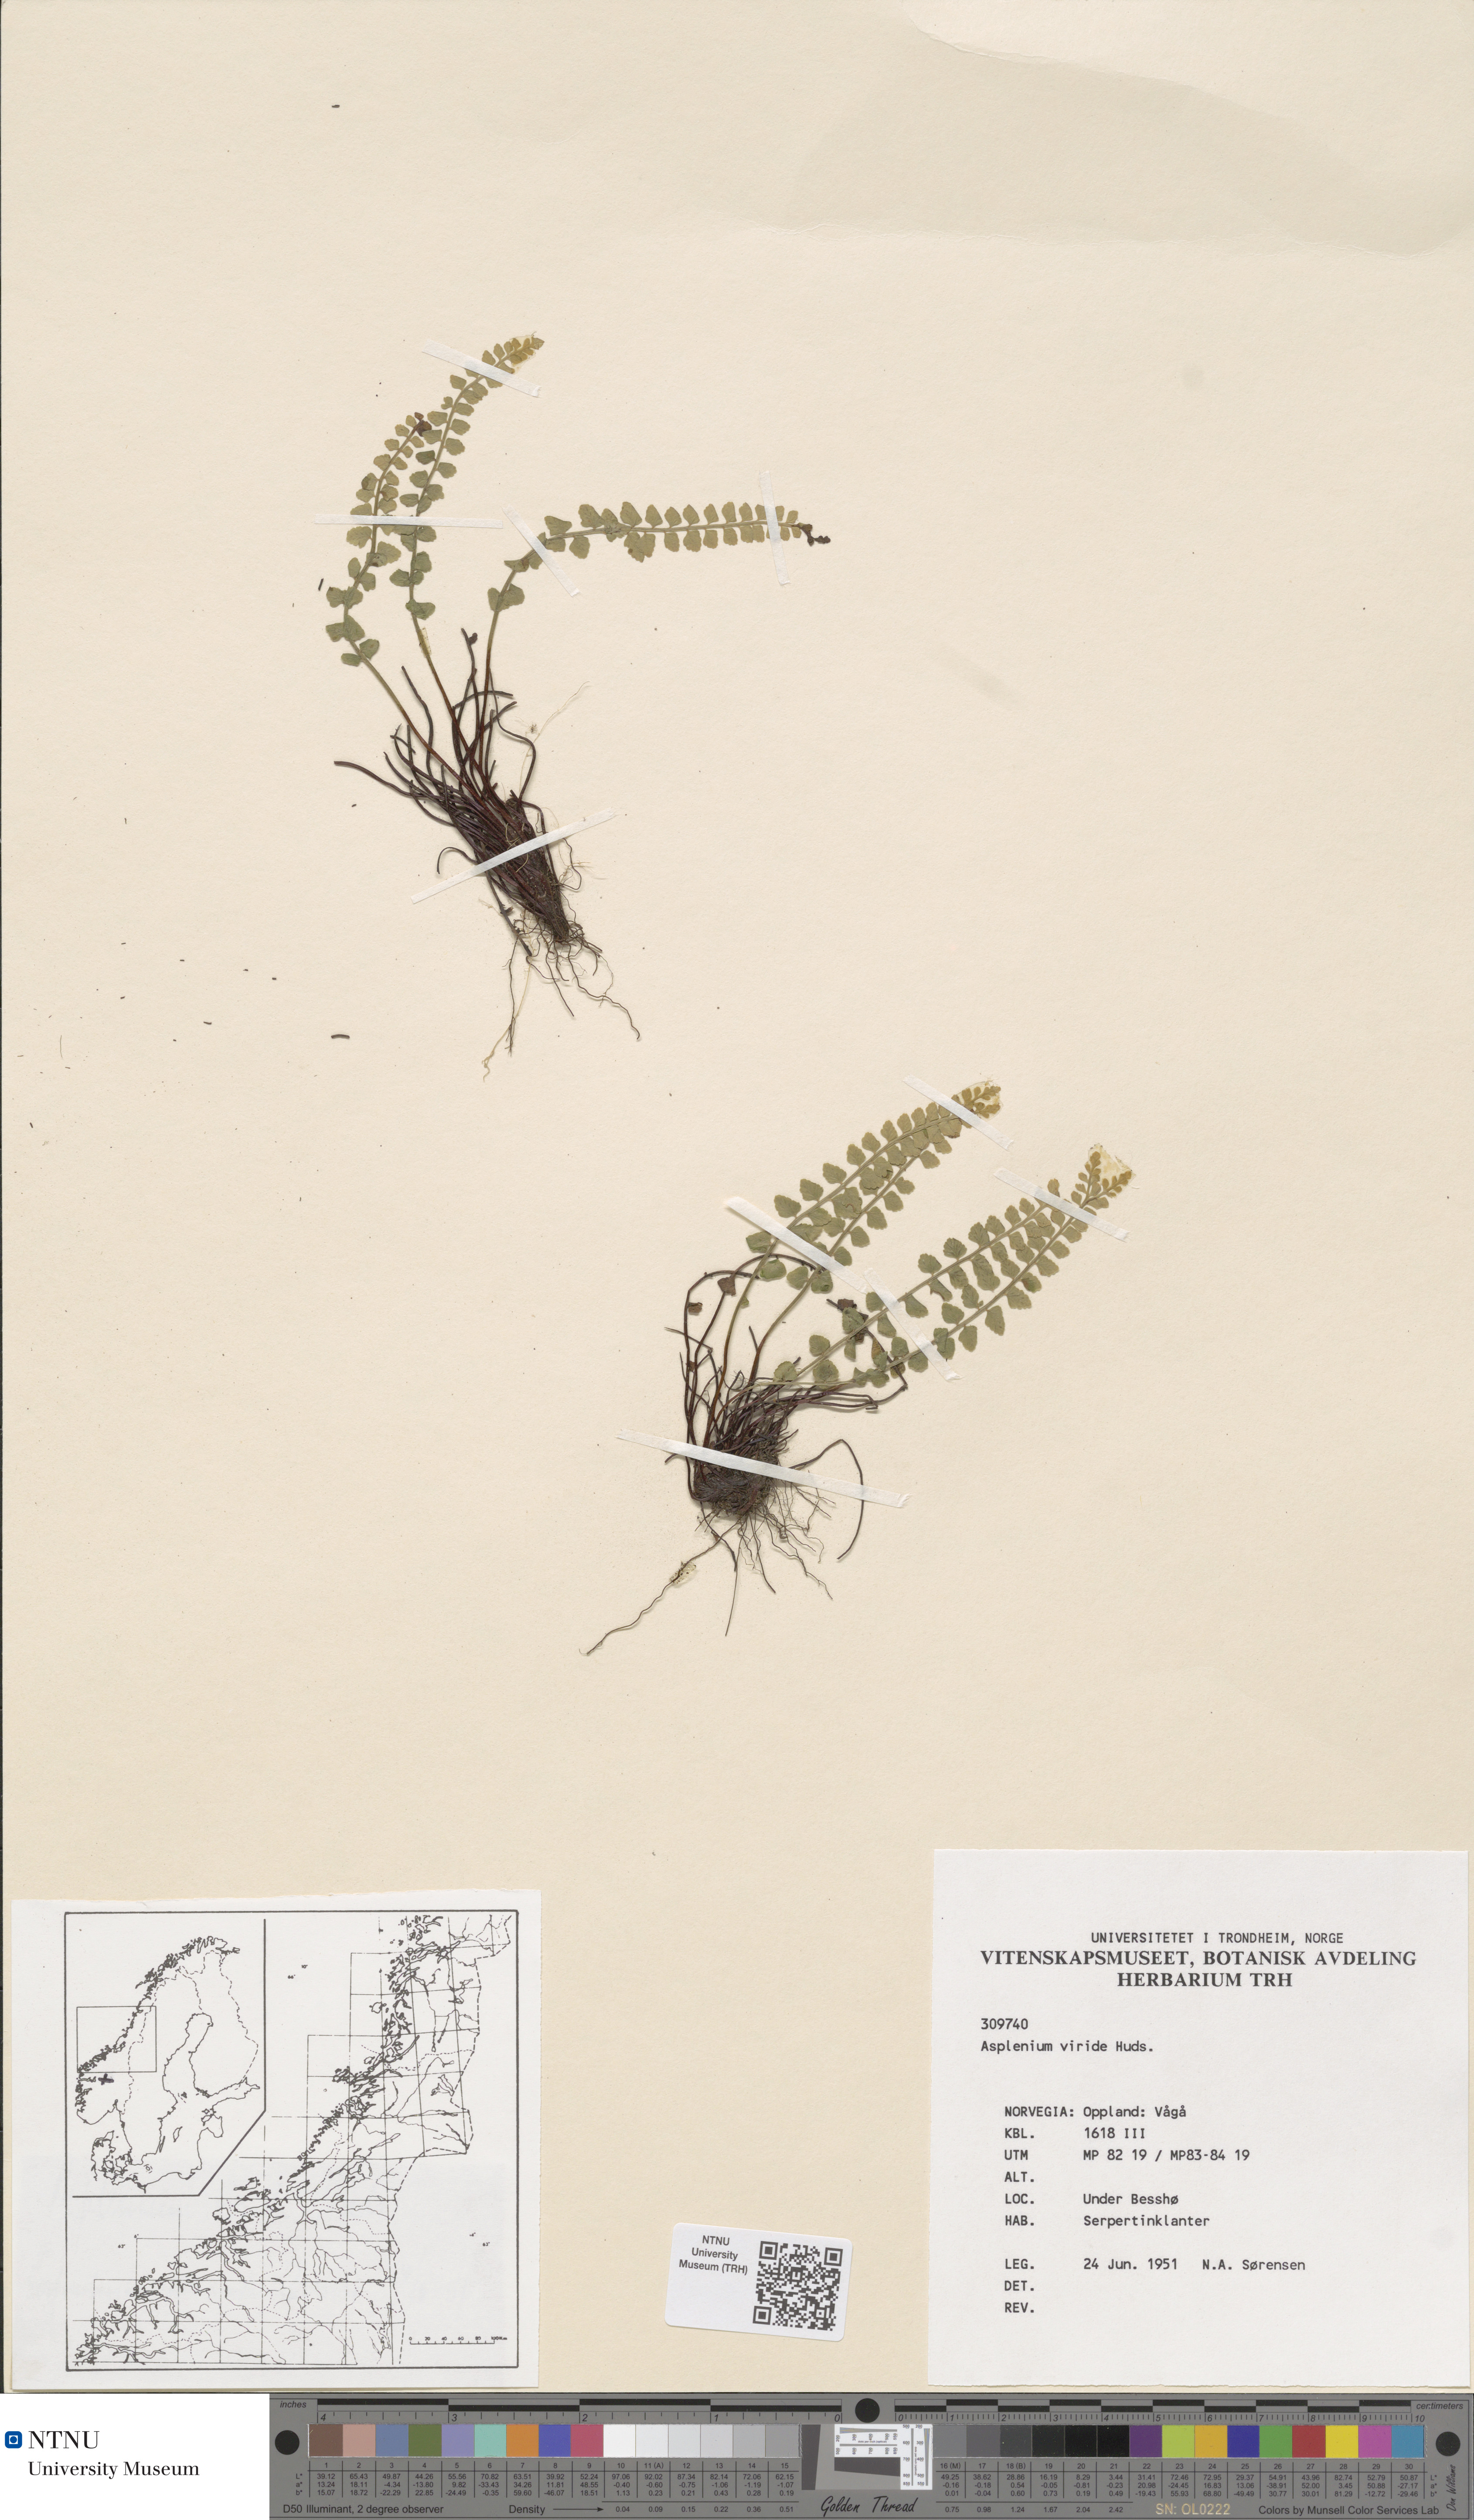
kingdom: Plantae
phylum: Tracheophyta
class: Polypodiopsida
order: Polypodiales
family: Aspleniaceae
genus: Asplenium
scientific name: Asplenium viride
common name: Green spleenwort
